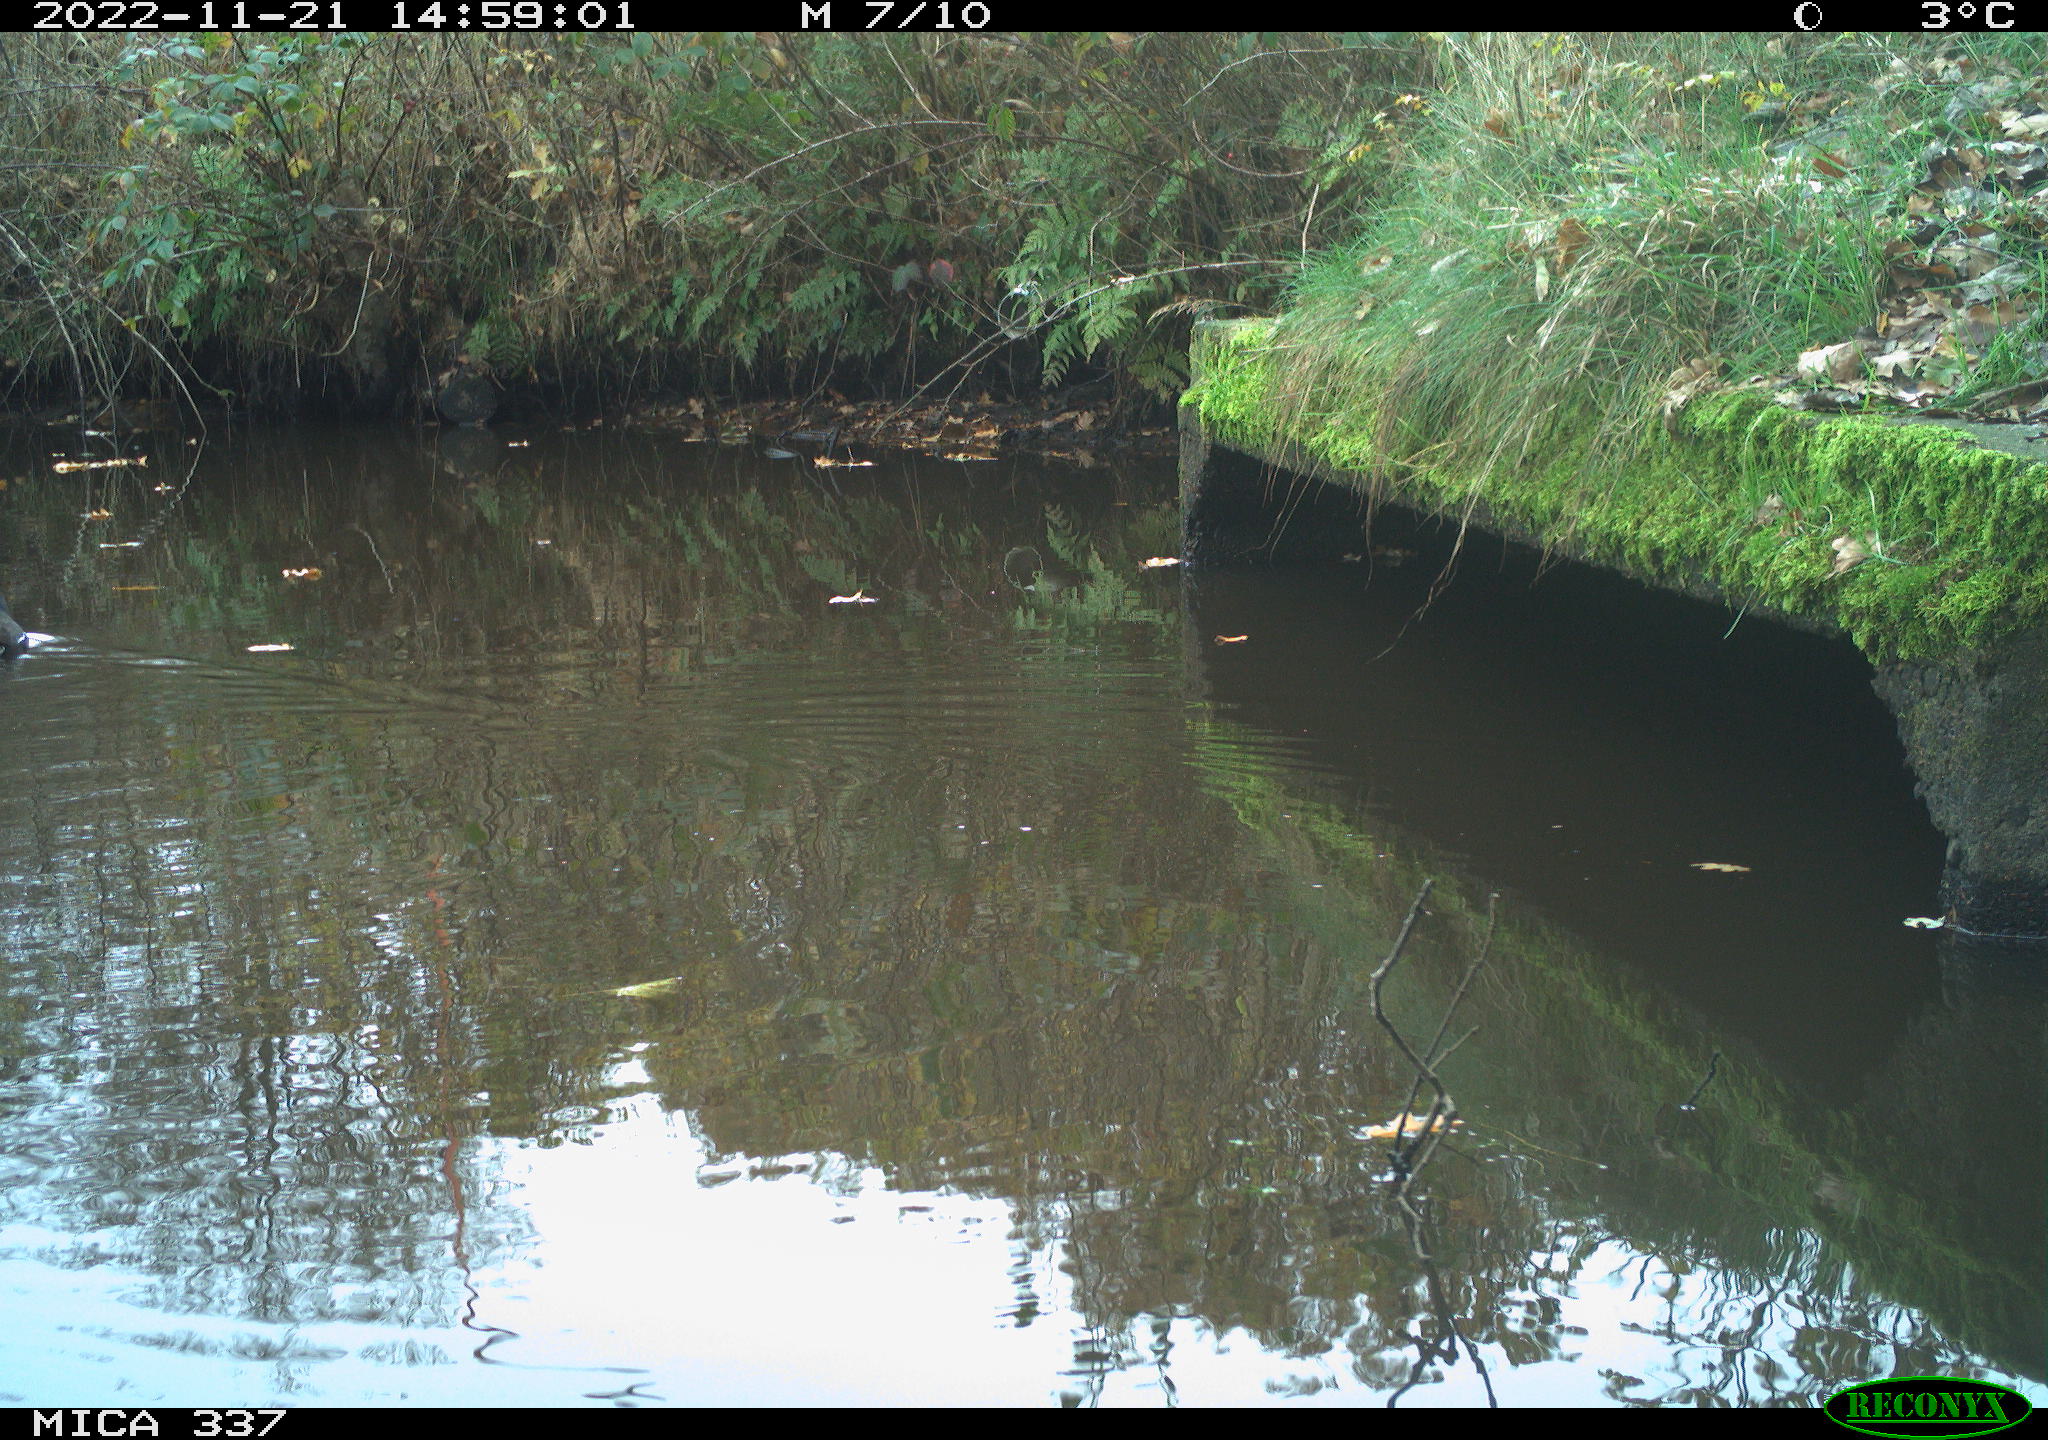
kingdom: Animalia
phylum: Chordata
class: Aves
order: Gruiformes
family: Rallidae
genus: Gallinula
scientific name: Gallinula chloropus
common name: Common moorhen
